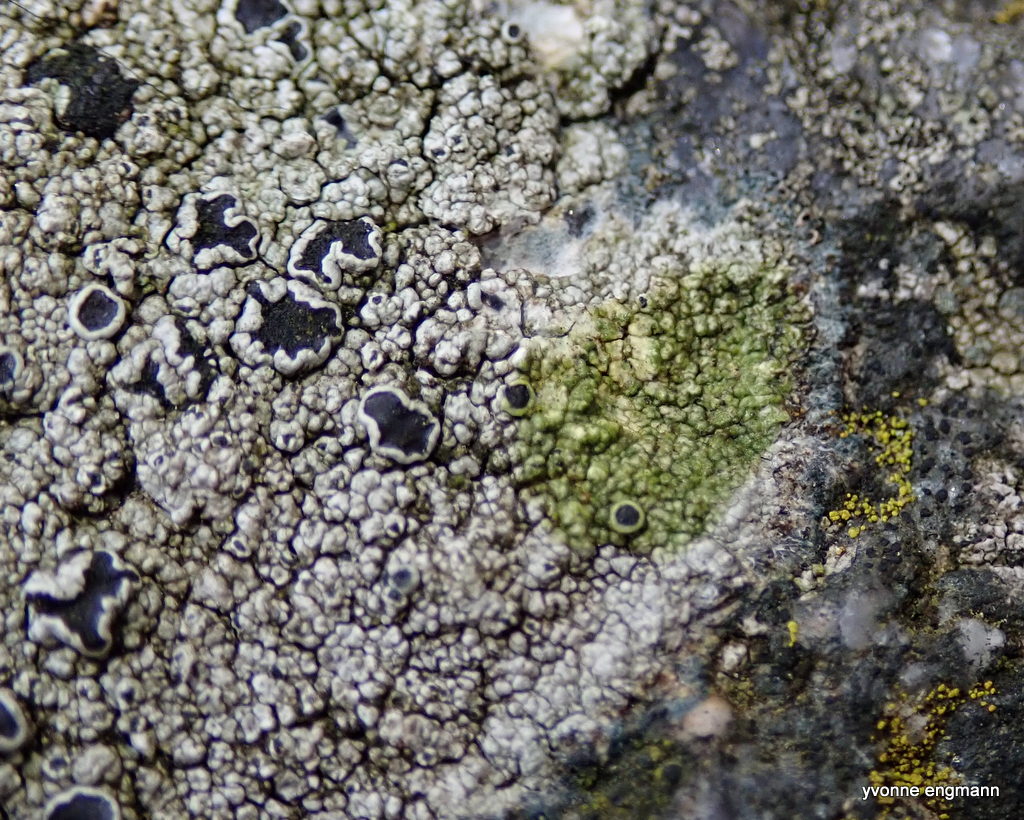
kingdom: Fungi
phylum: Ascomycota
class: Lecanoromycetes
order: Lecanorales
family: Tephromelataceae
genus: Tephromela
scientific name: Tephromela atra
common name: sortfrugtet kantskivelav
